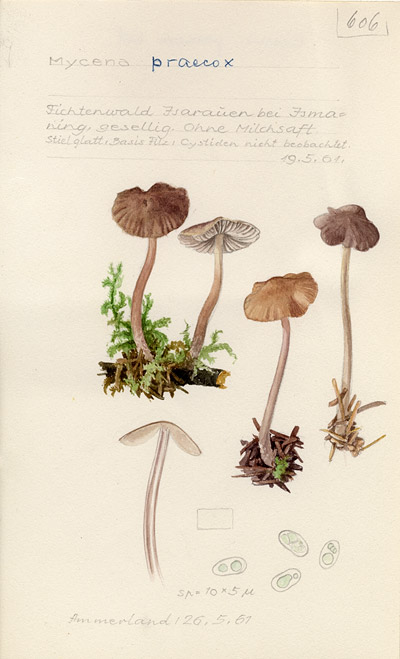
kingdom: Fungi
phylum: Basidiomycota
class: Agaricomycetes
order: Agaricales
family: Mycenaceae
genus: Mycena
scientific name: Mycena abramsii
